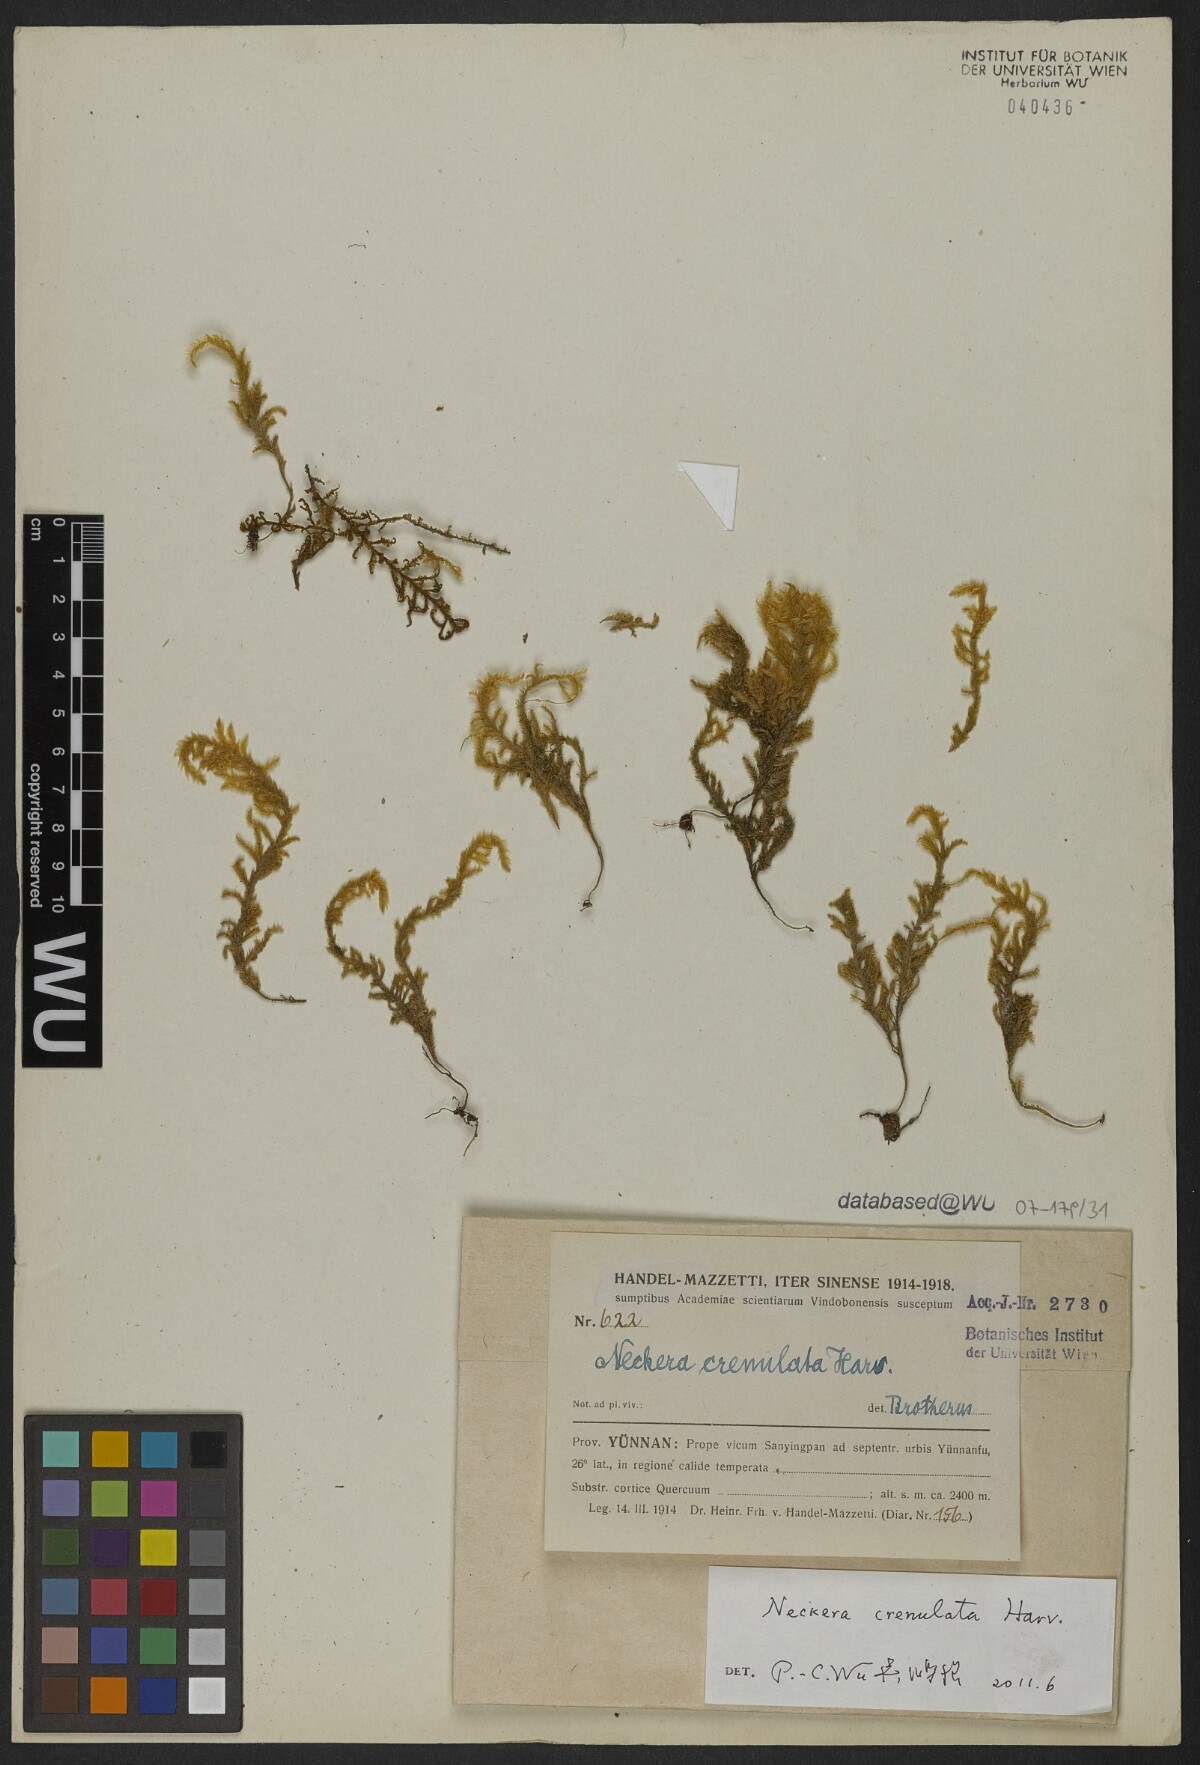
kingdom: Plantae
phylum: Bryophyta
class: Bryopsida
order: Hypnales
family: Neckeraceae
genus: Taiwanobryum
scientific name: Taiwanobryum crenulatum
